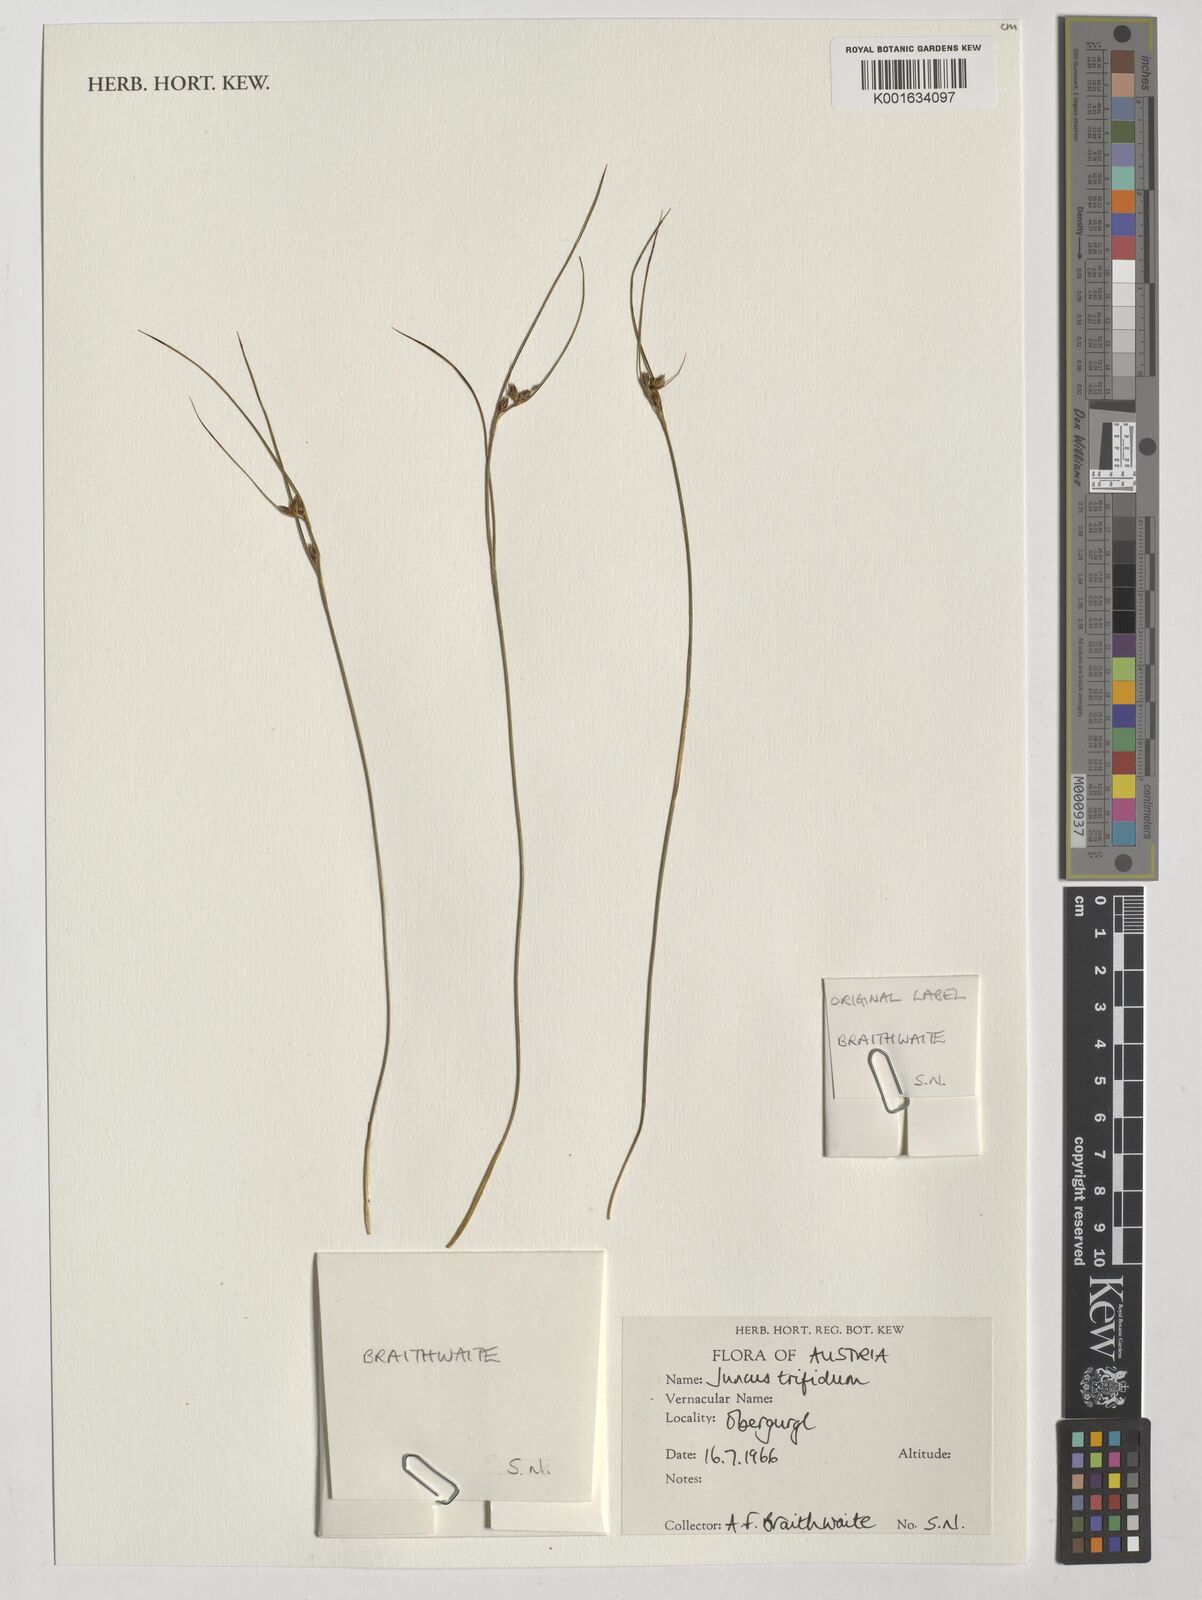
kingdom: Plantae
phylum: Tracheophyta
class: Liliopsida
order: Poales
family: Juncaceae
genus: Oreojuncus
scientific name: Oreojuncus trifidus
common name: Highland rush
